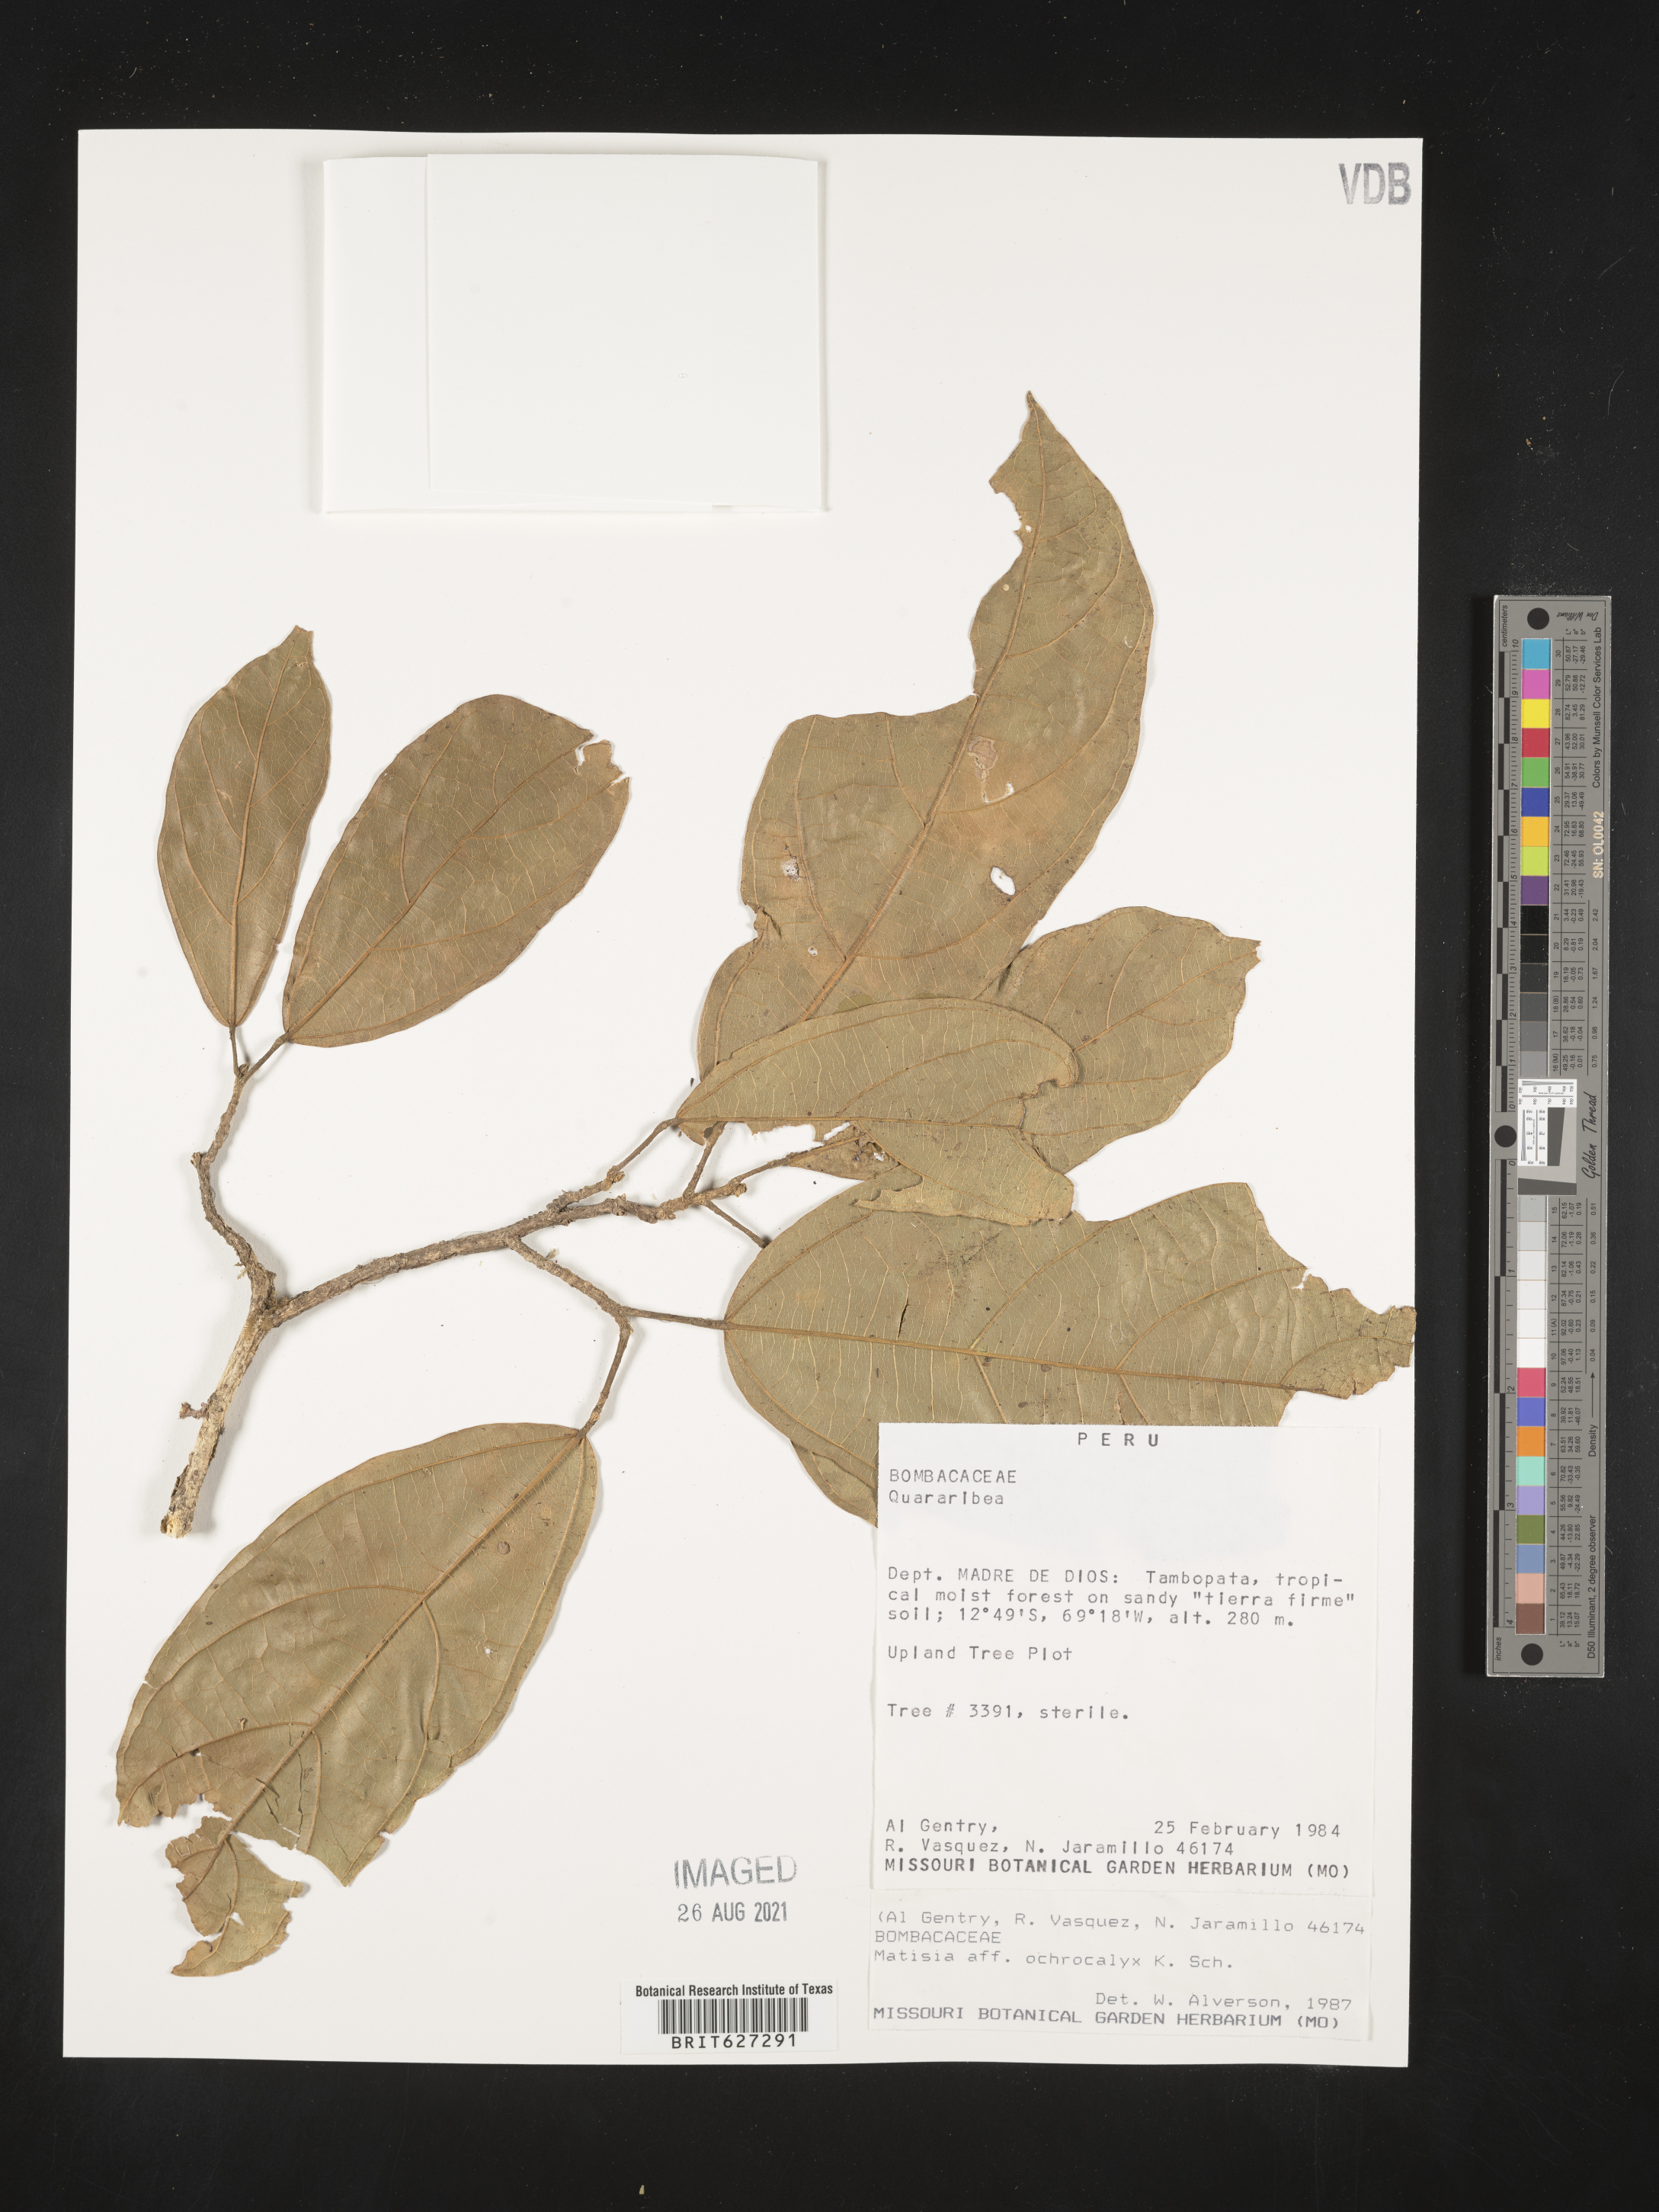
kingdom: Plantae
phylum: Tracheophyta
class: Magnoliopsida
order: Malvales
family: Malvaceae
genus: Quararibea
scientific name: Quararibea
